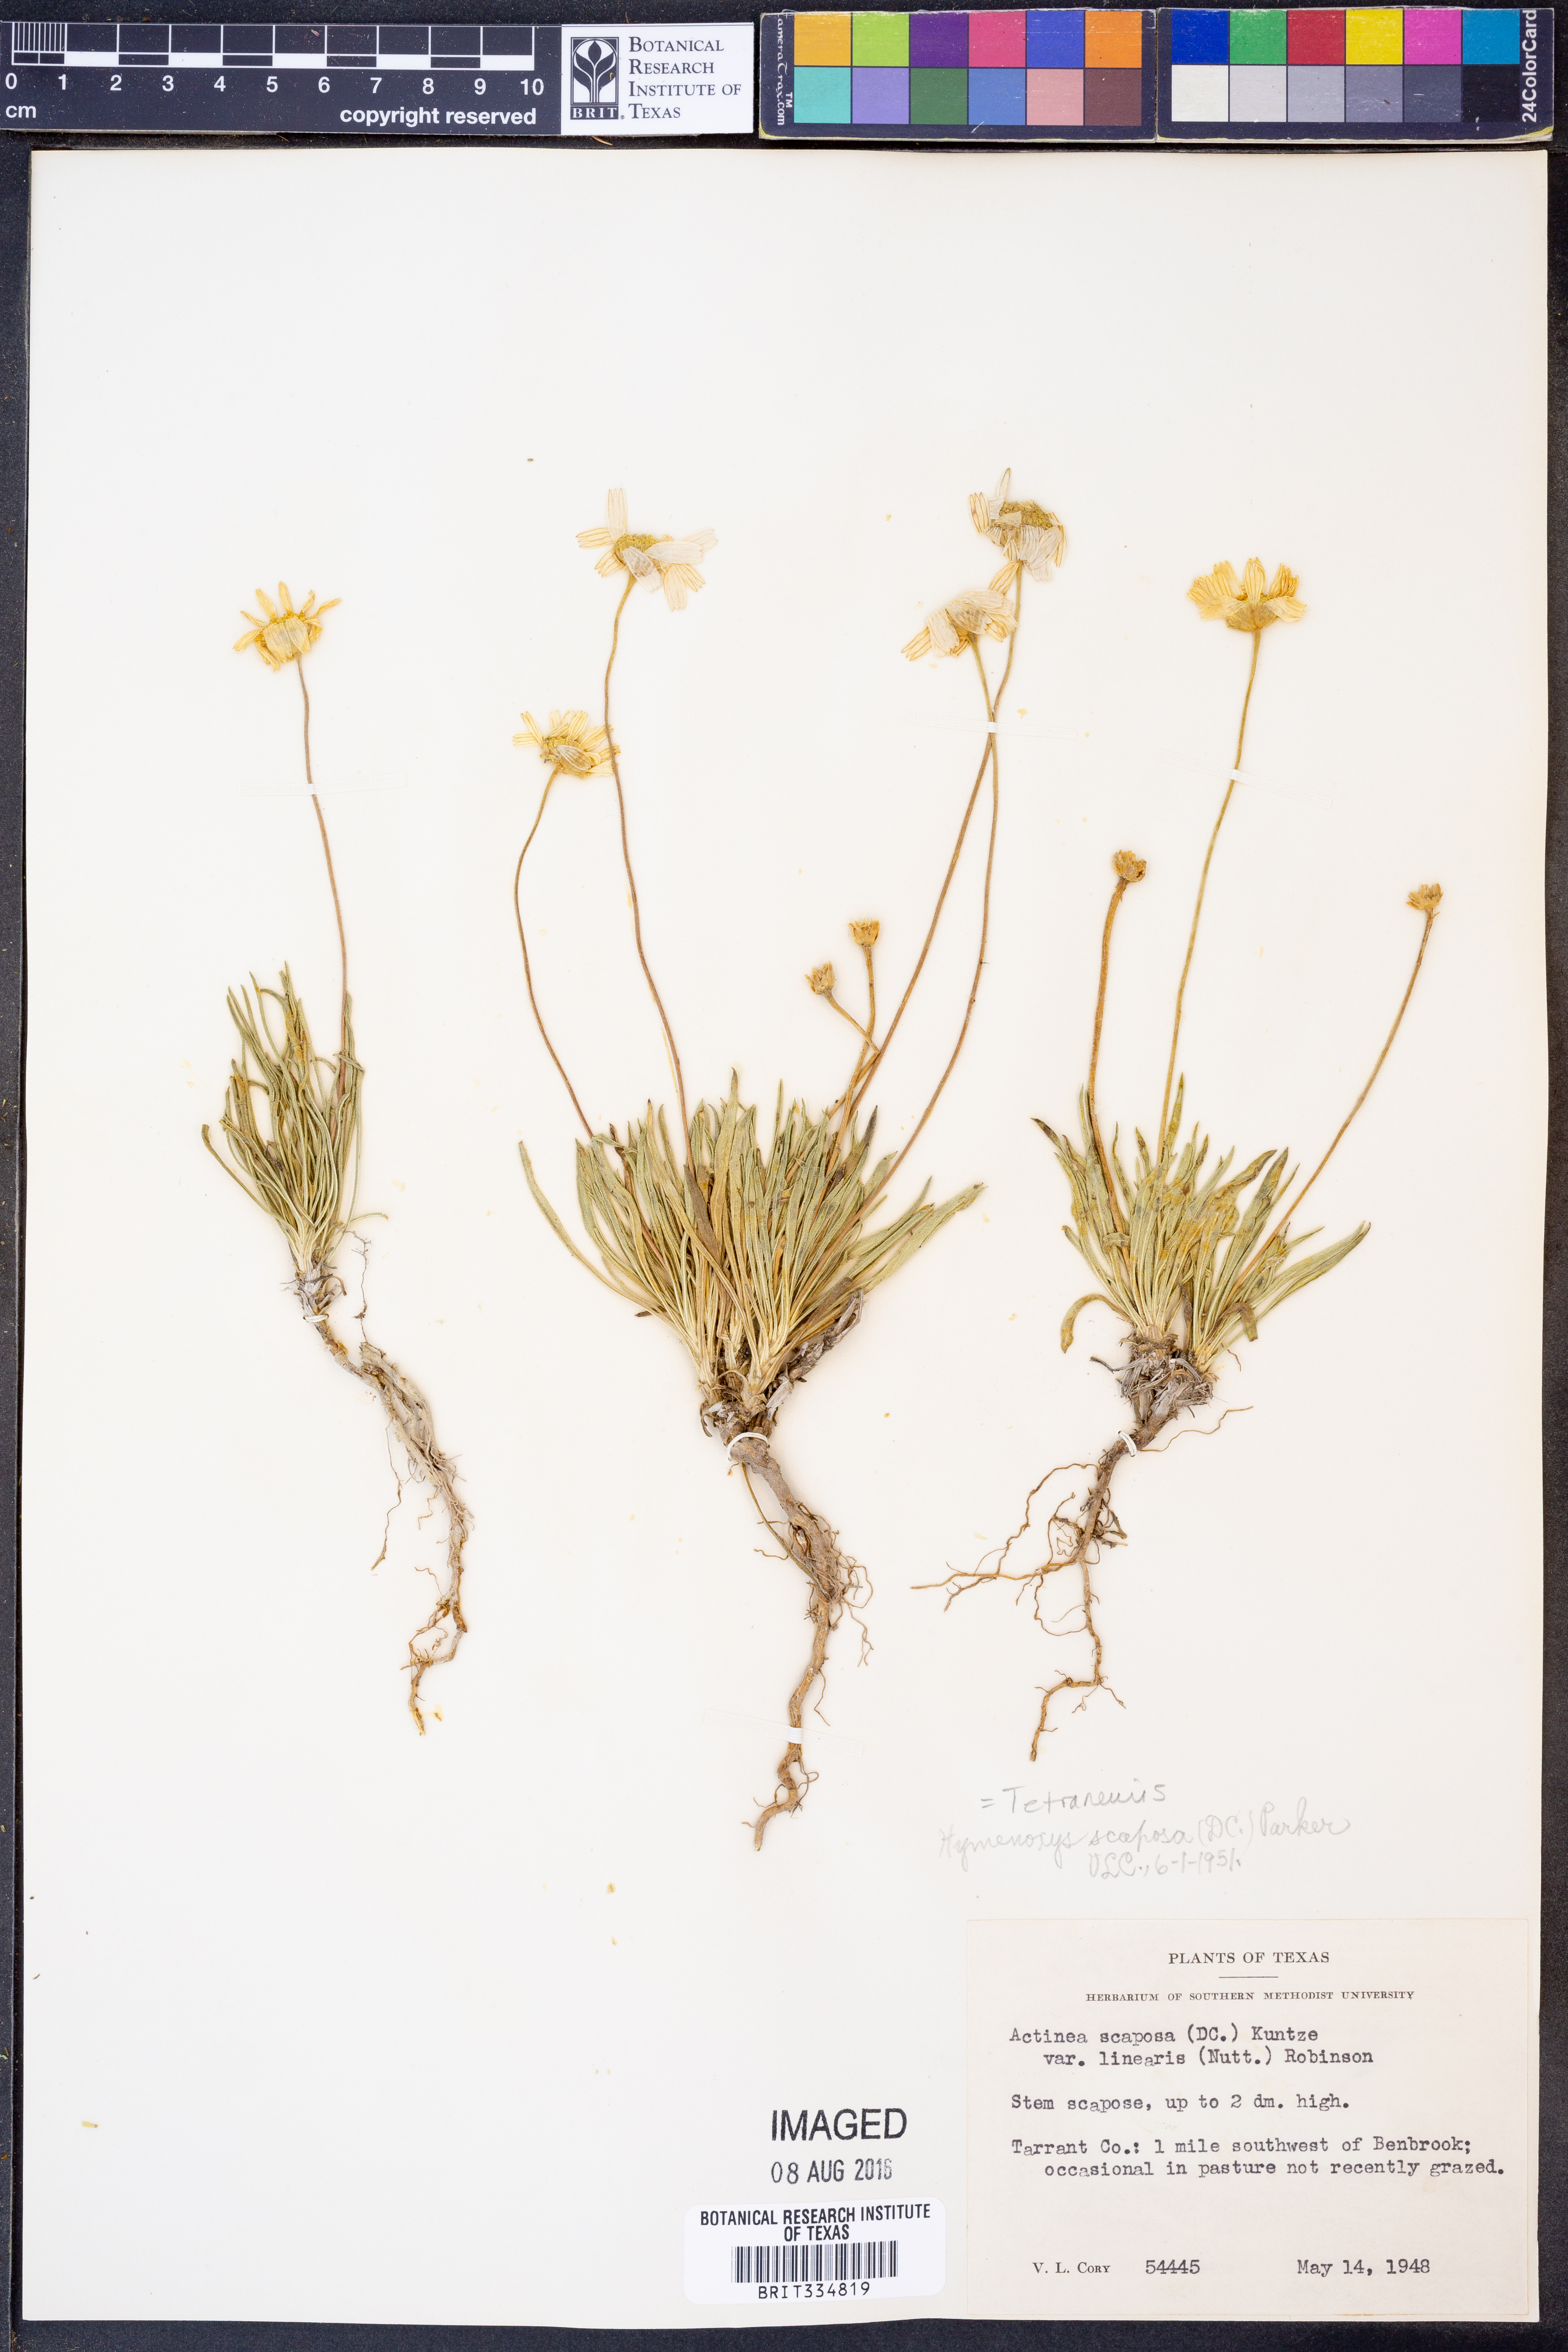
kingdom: Plantae
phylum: Tracheophyta
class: Magnoliopsida
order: Asterales
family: Asteraceae
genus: Tetraneuris
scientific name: Tetraneuris scaposa
